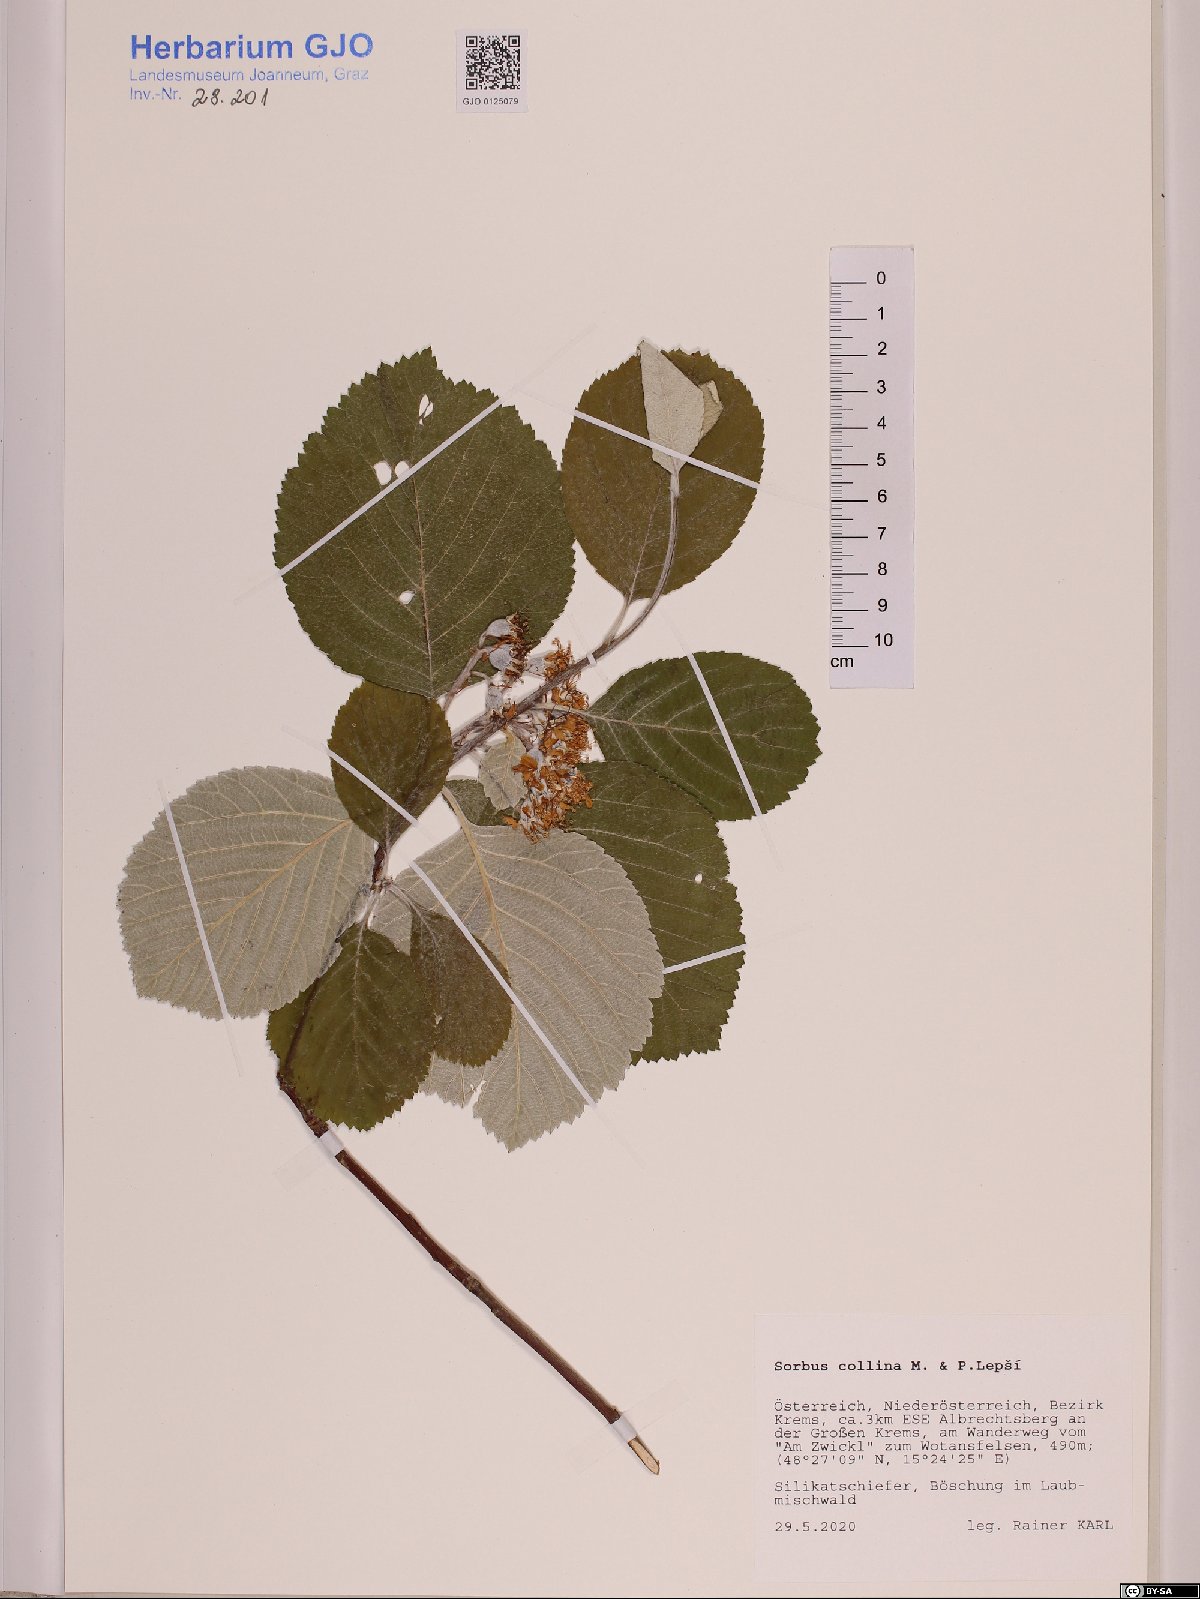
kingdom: Plantae
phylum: Tracheophyta
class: Magnoliopsida
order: Rosales
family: Rosaceae
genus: Aria
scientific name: Aria collina
